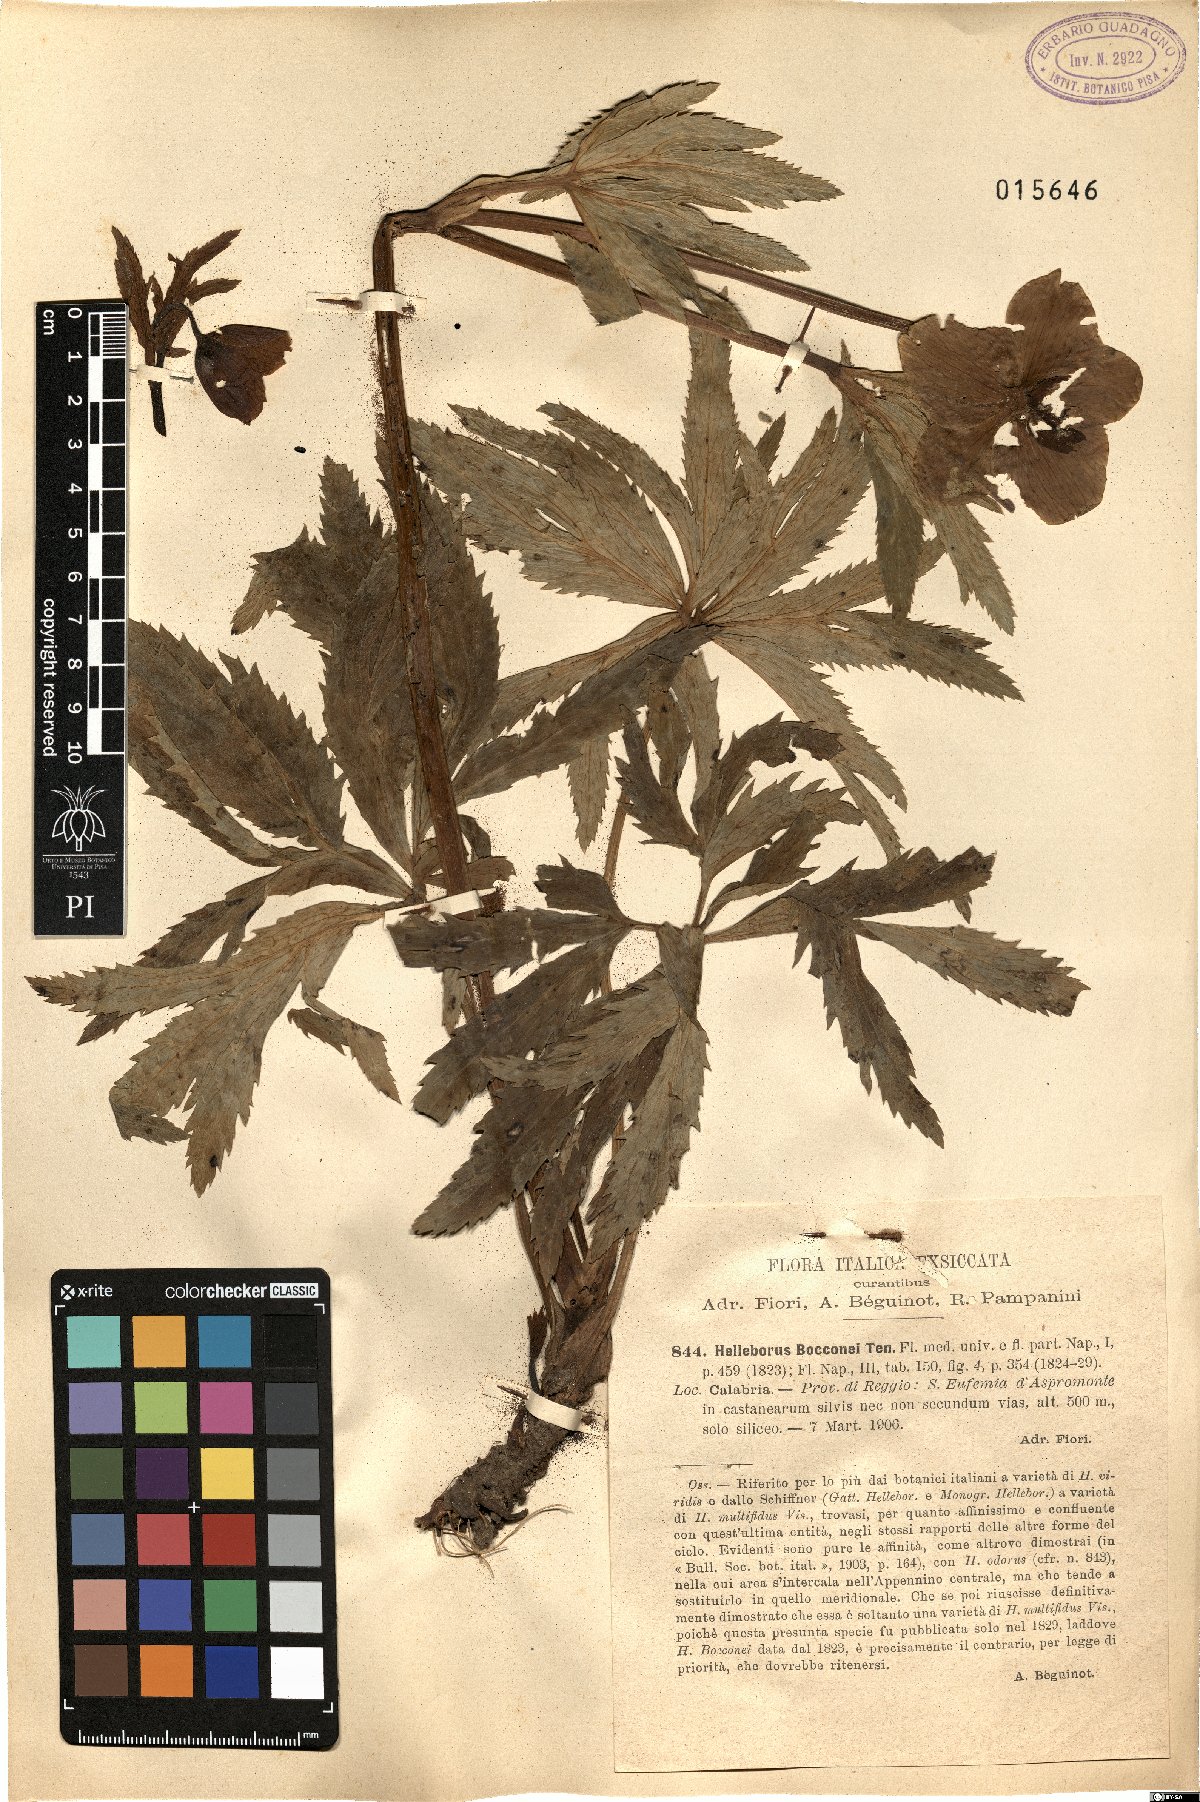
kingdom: Plantae
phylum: Tracheophyta
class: Magnoliopsida
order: Ranunculales
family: Ranunculaceae
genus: Helleborus
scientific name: Helleborus bocconei
